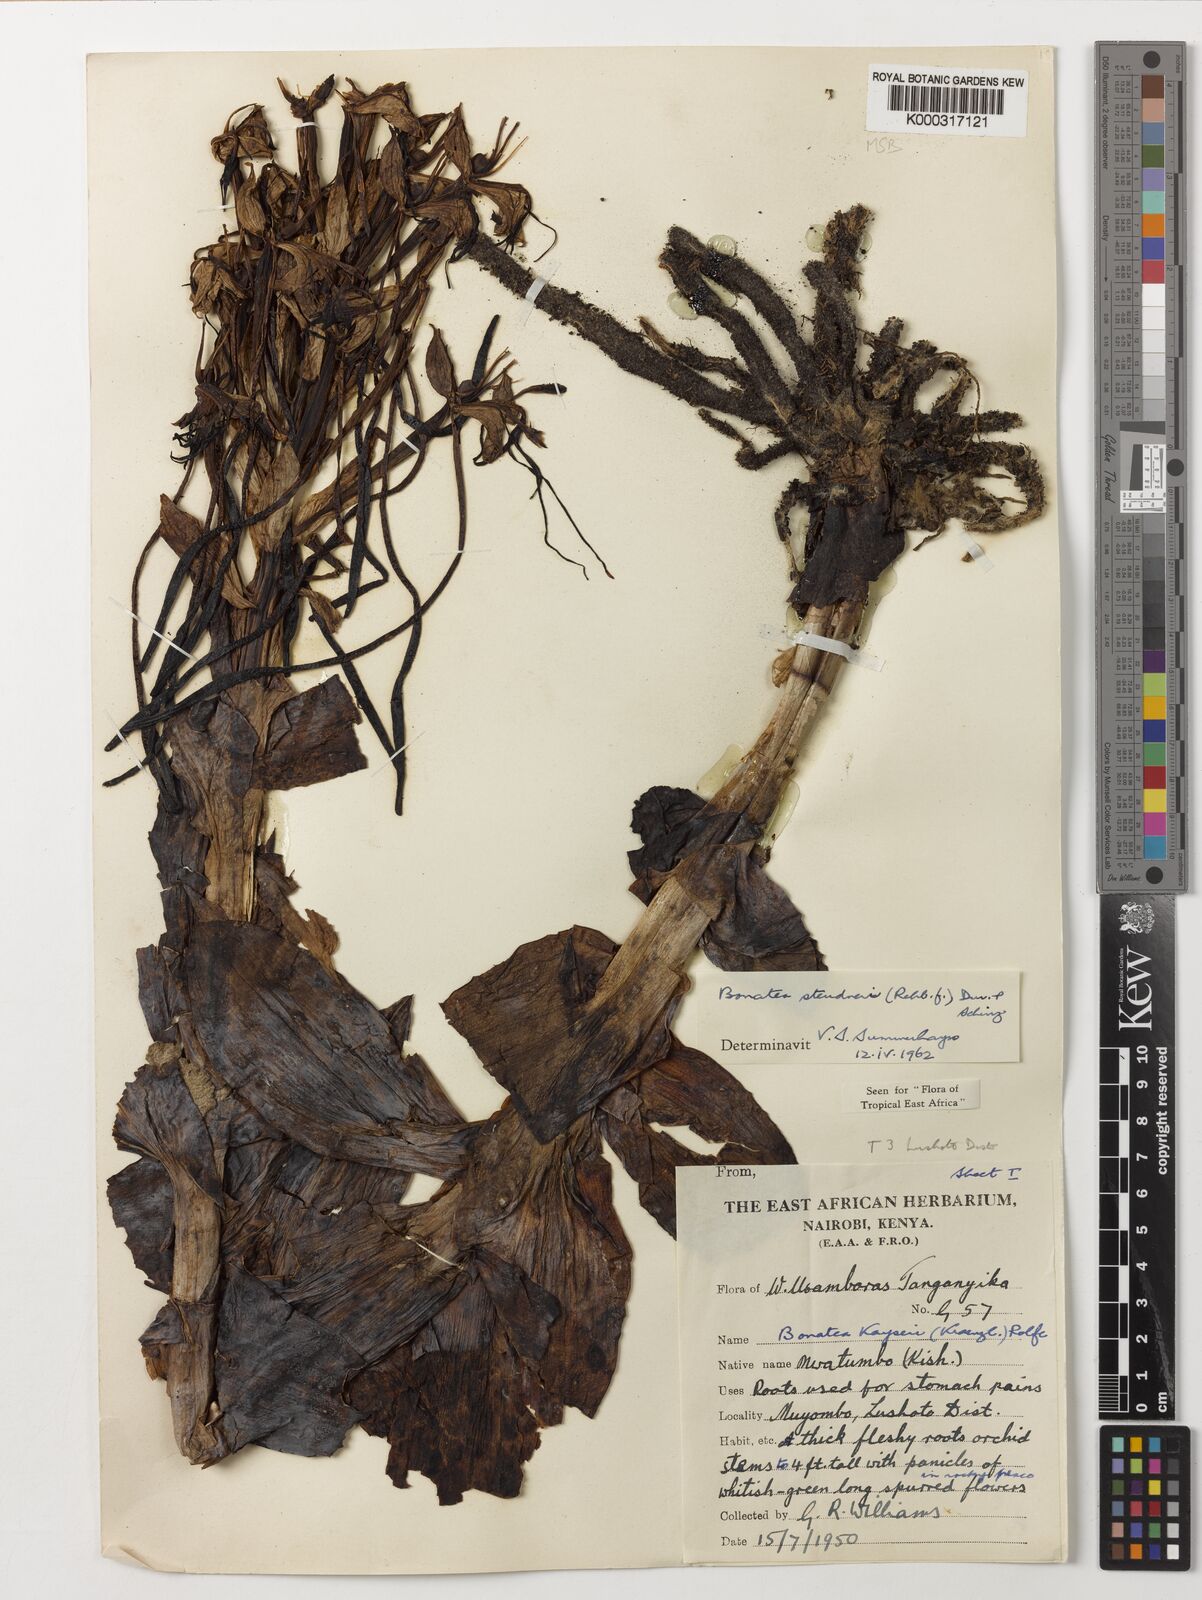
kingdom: Plantae
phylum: Tracheophyta
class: Liliopsida
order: Asparagales
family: Orchidaceae
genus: Bonatea
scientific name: Bonatea steudneri
